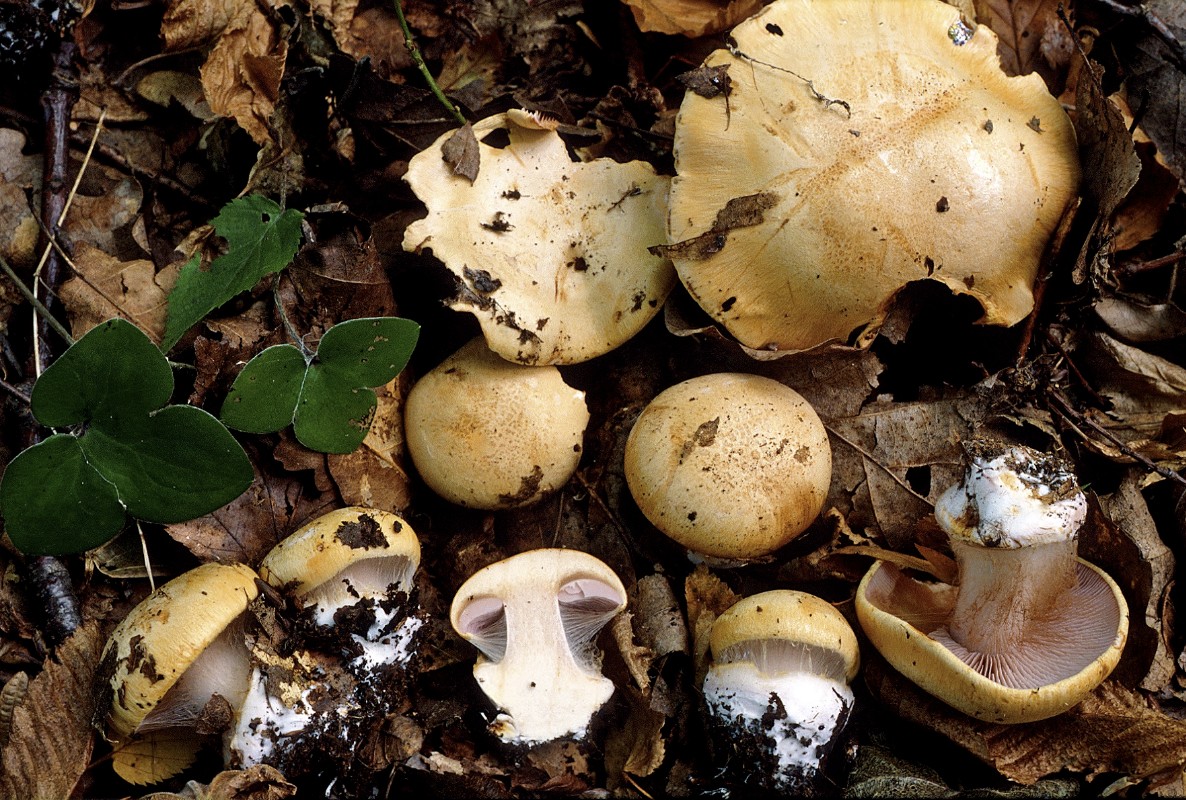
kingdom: Fungi
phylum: Basidiomycota
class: Agaricomycetes
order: Agaricales
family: Cortinariaceae
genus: Calonarius
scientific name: Calonarius ochraceopallescens
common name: okkerbleg slørhat
